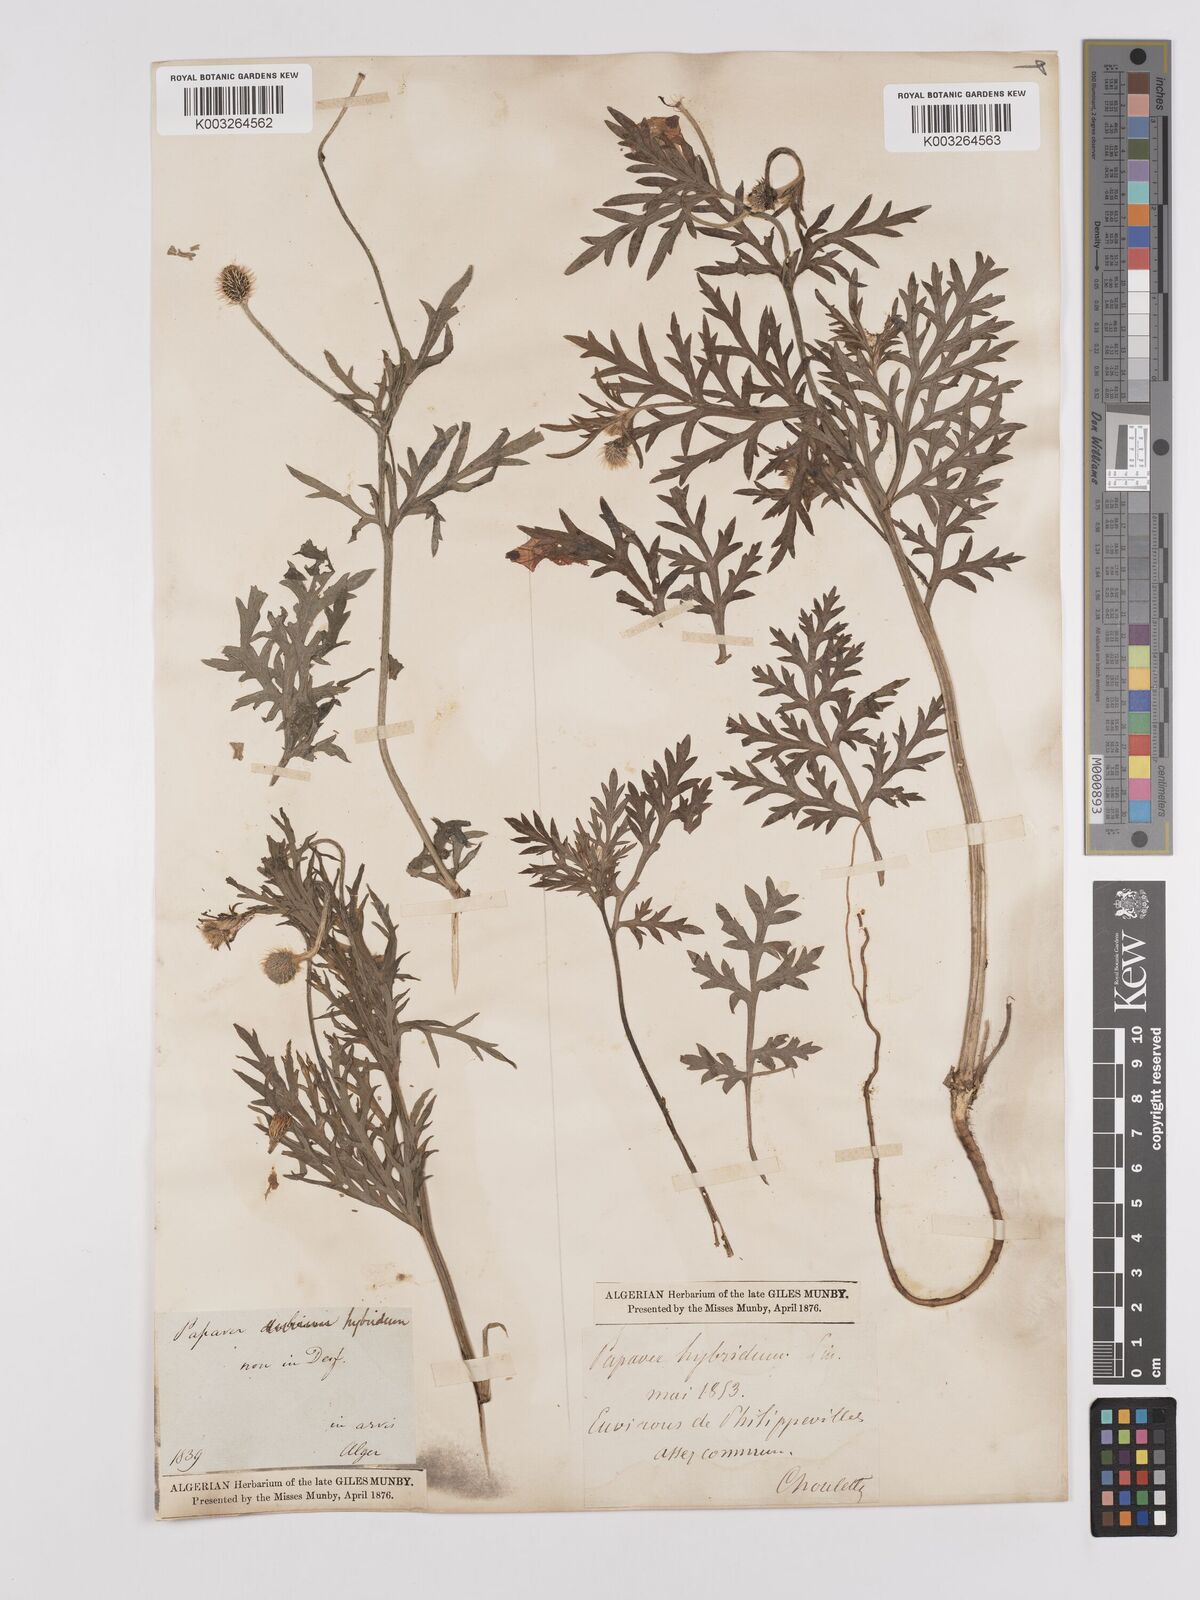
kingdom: Plantae
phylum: Tracheophyta
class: Magnoliopsida
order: Ranunculales
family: Papaveraceae
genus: Papaver
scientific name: Papaver
